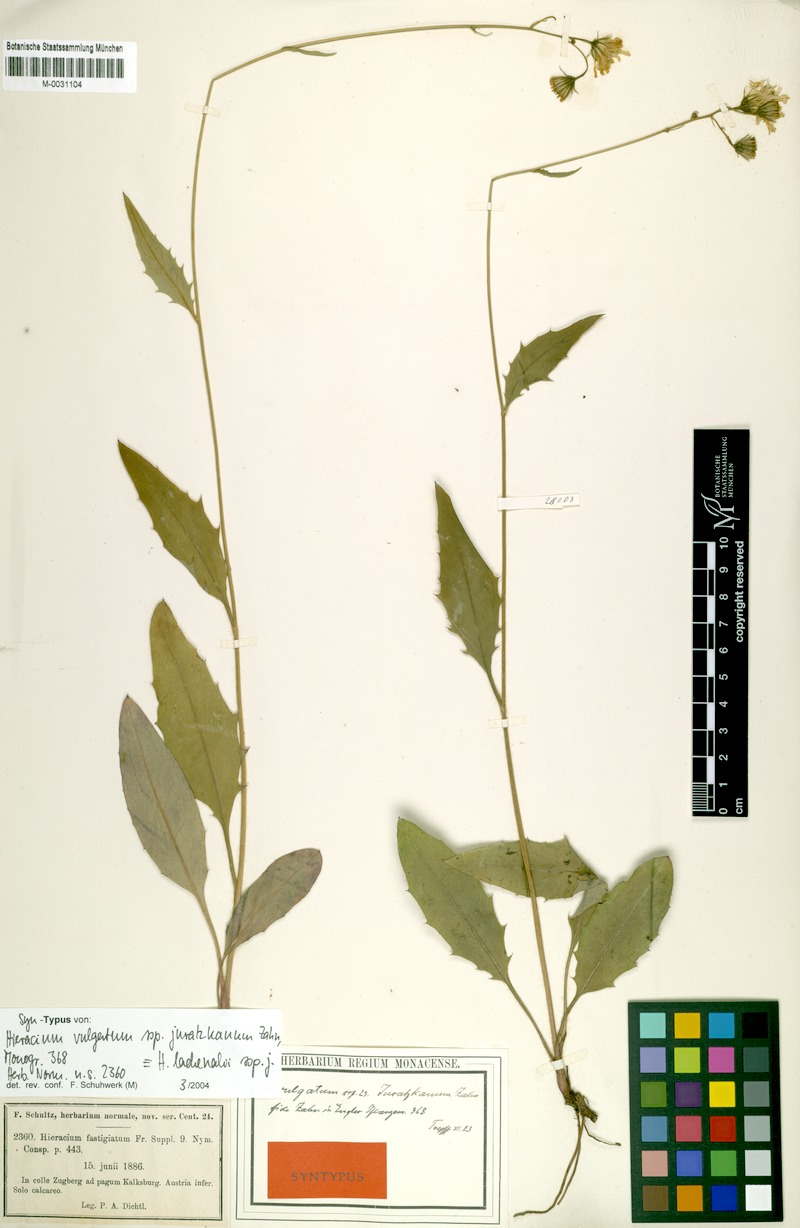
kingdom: Plantae
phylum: Tracheophyta
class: Magnoliopsida
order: Asterales
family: Asteraceae
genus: Hieracium
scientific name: Hieracium lachenalii
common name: Common hawkweed
